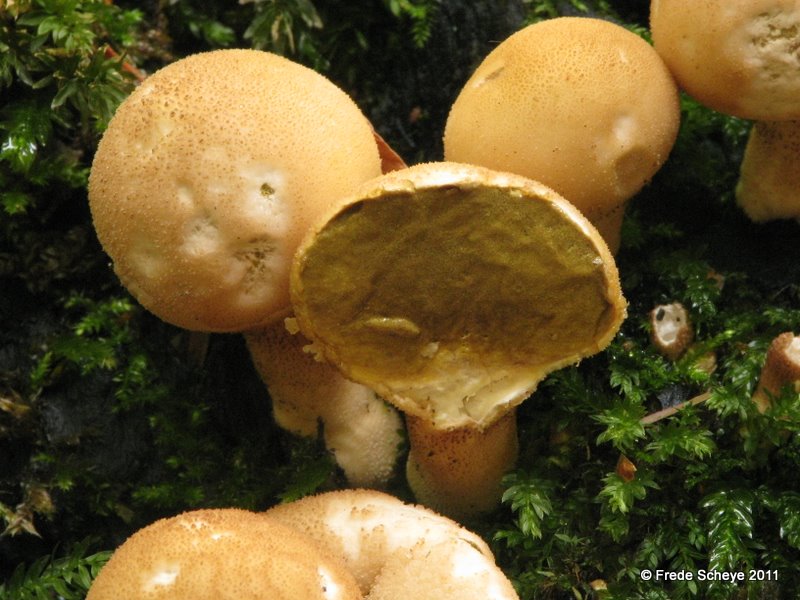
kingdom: Fungi
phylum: Basidiomycota
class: Agaricomycetes
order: Agaricales
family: Lycoperdaceae
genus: Apioperdon
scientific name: Apioperdon pyriforme
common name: pære-støvbold
